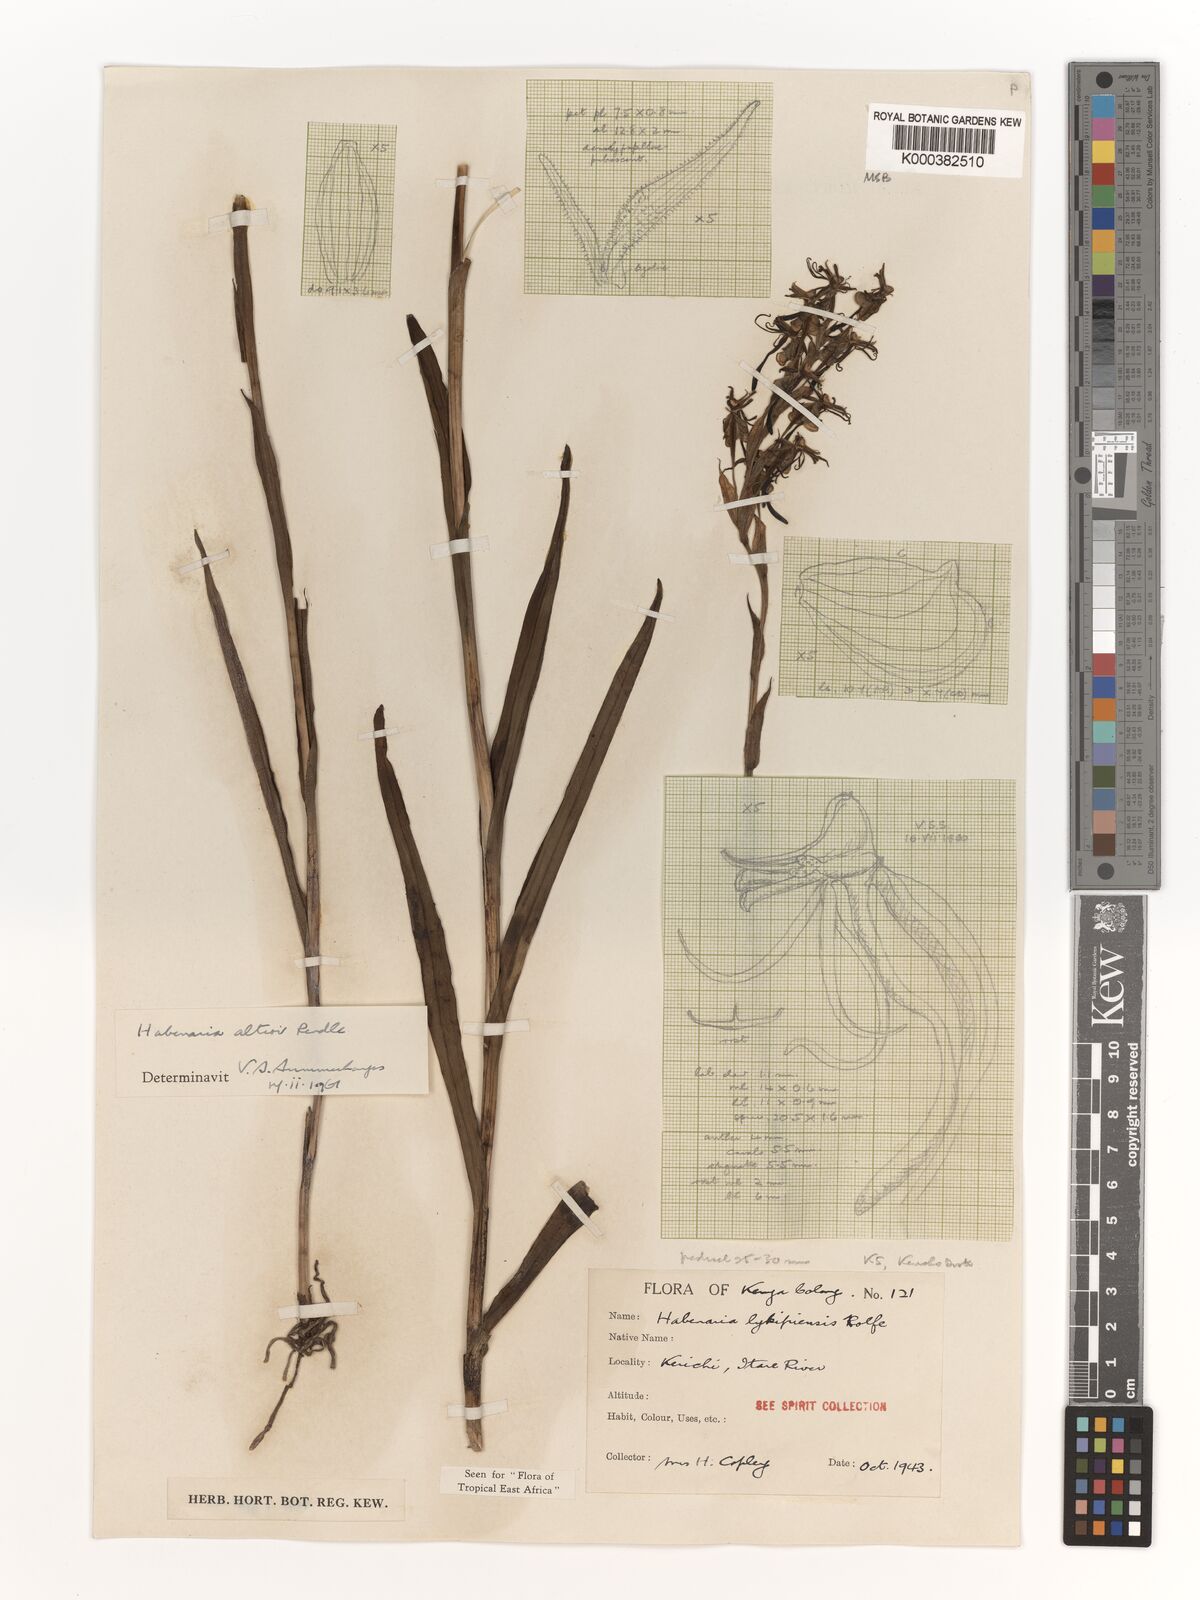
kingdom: Plantae
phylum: Tracheophyta
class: Liliopsida
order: Asparagales
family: Orchidaceae
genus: Habenaria
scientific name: Habenaria altior
